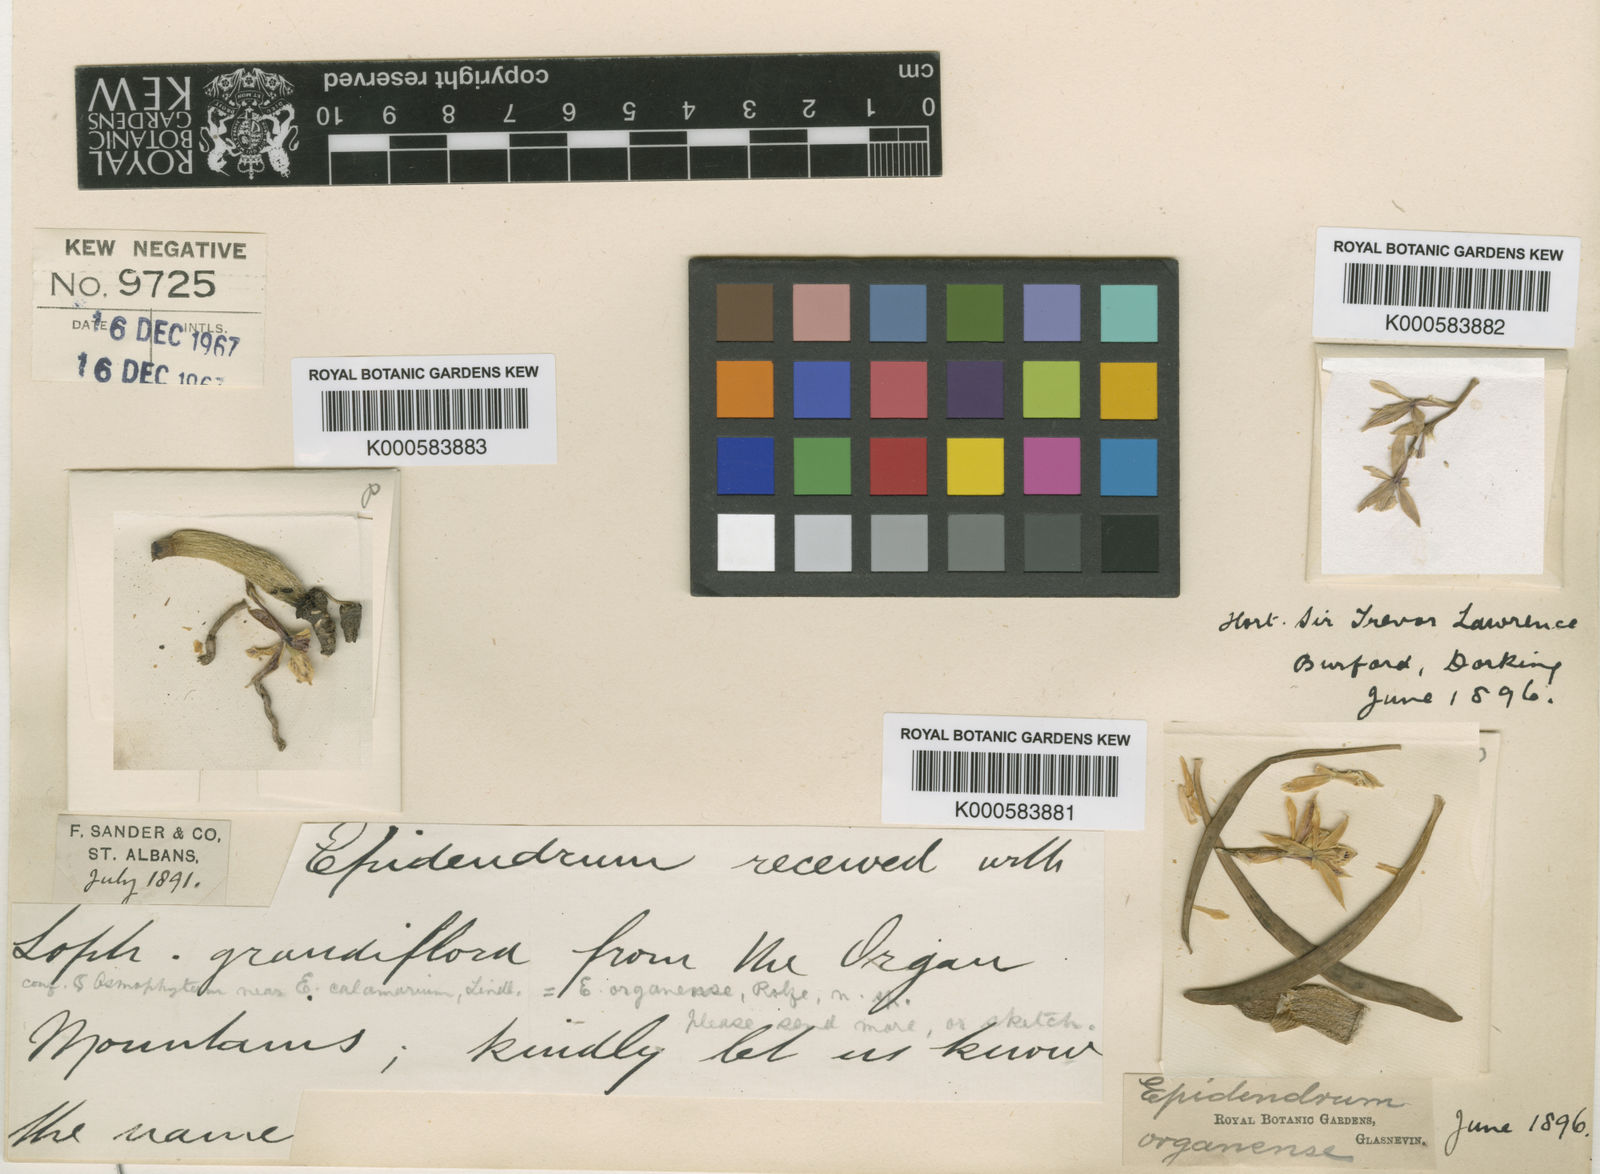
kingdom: Plantae
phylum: Tracheophyta
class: Liliopsida
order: Asparagales
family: Orchidaceae
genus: Prosthechea
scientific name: Prosthechea calamaria
